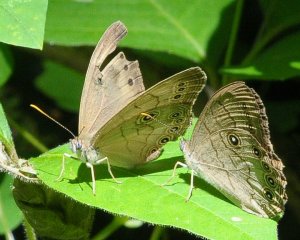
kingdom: Animalia
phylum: Arthropoda
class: Insecta
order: Lepidoptera
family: Nymphalidae
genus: Lethe
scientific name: Lethe eurydice
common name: Appalachian Eyed Brown
